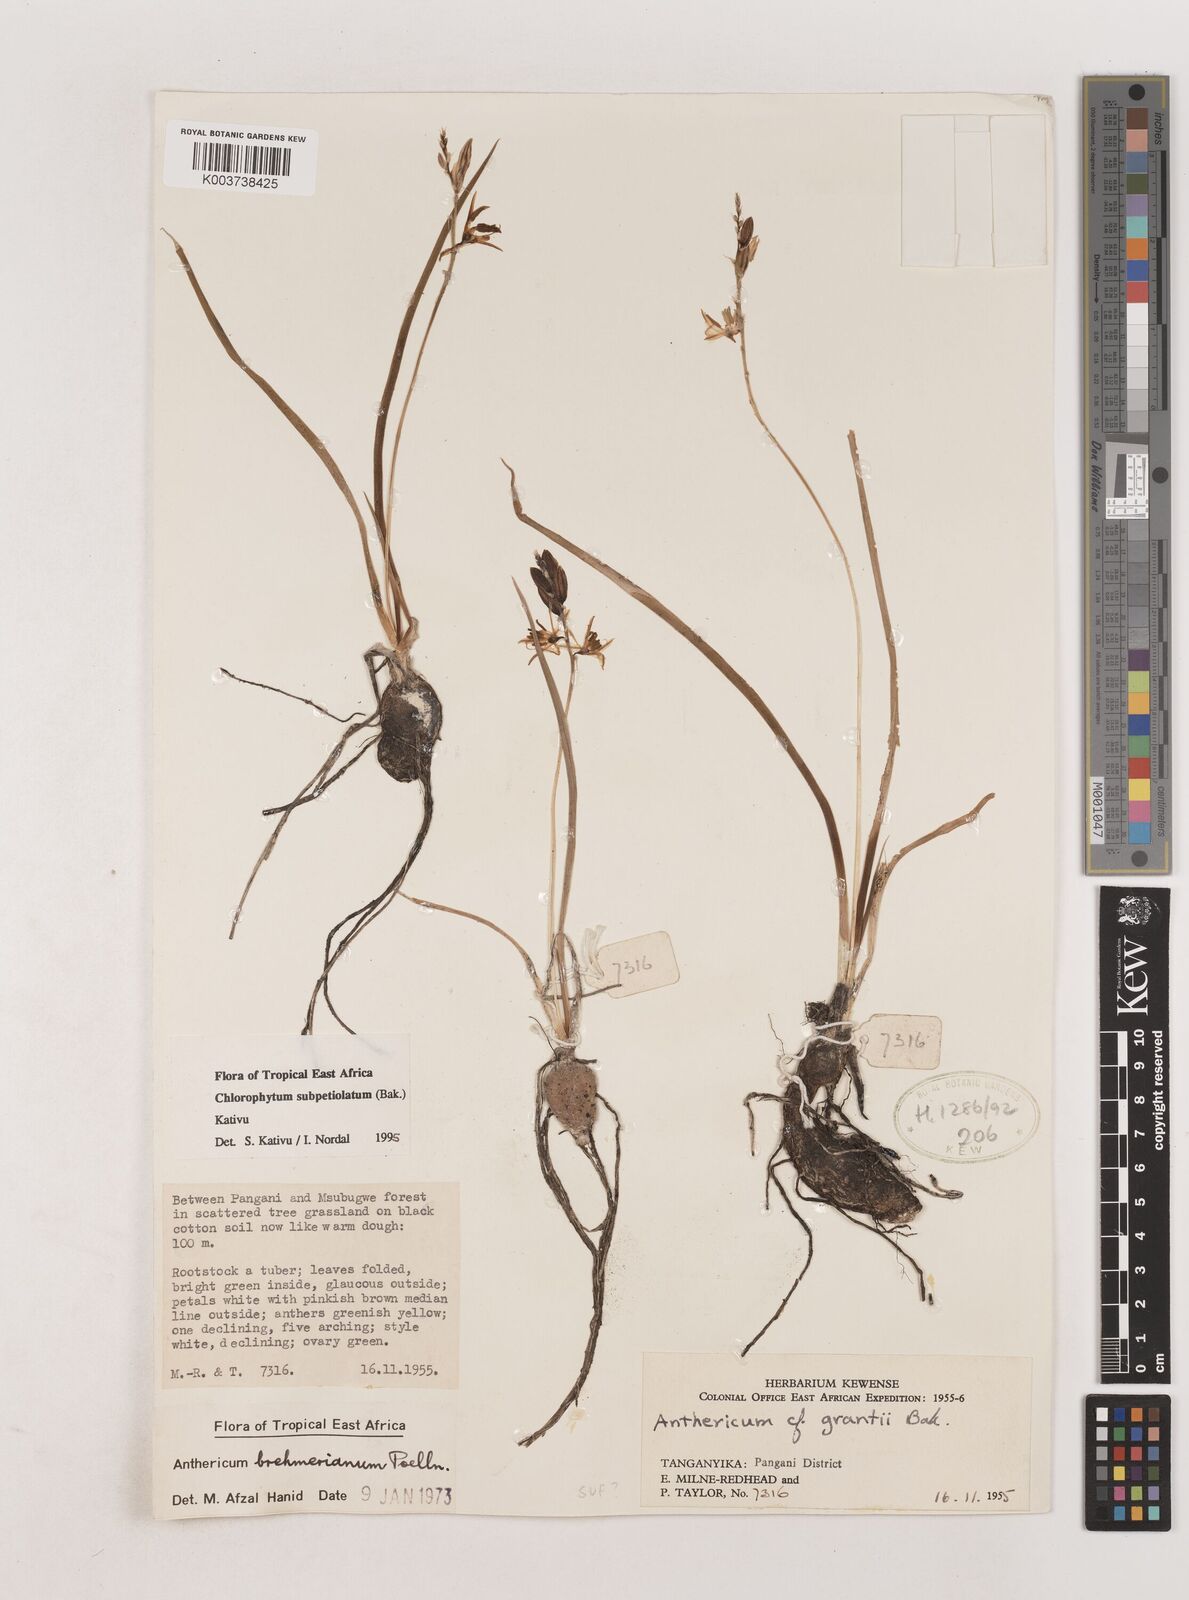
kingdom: Plantae
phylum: Tracheophyta
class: Liliopsida
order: Asparagales
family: Asparagaceae
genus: Chlorophytum
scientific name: Chlorophytum subpetiolatum
